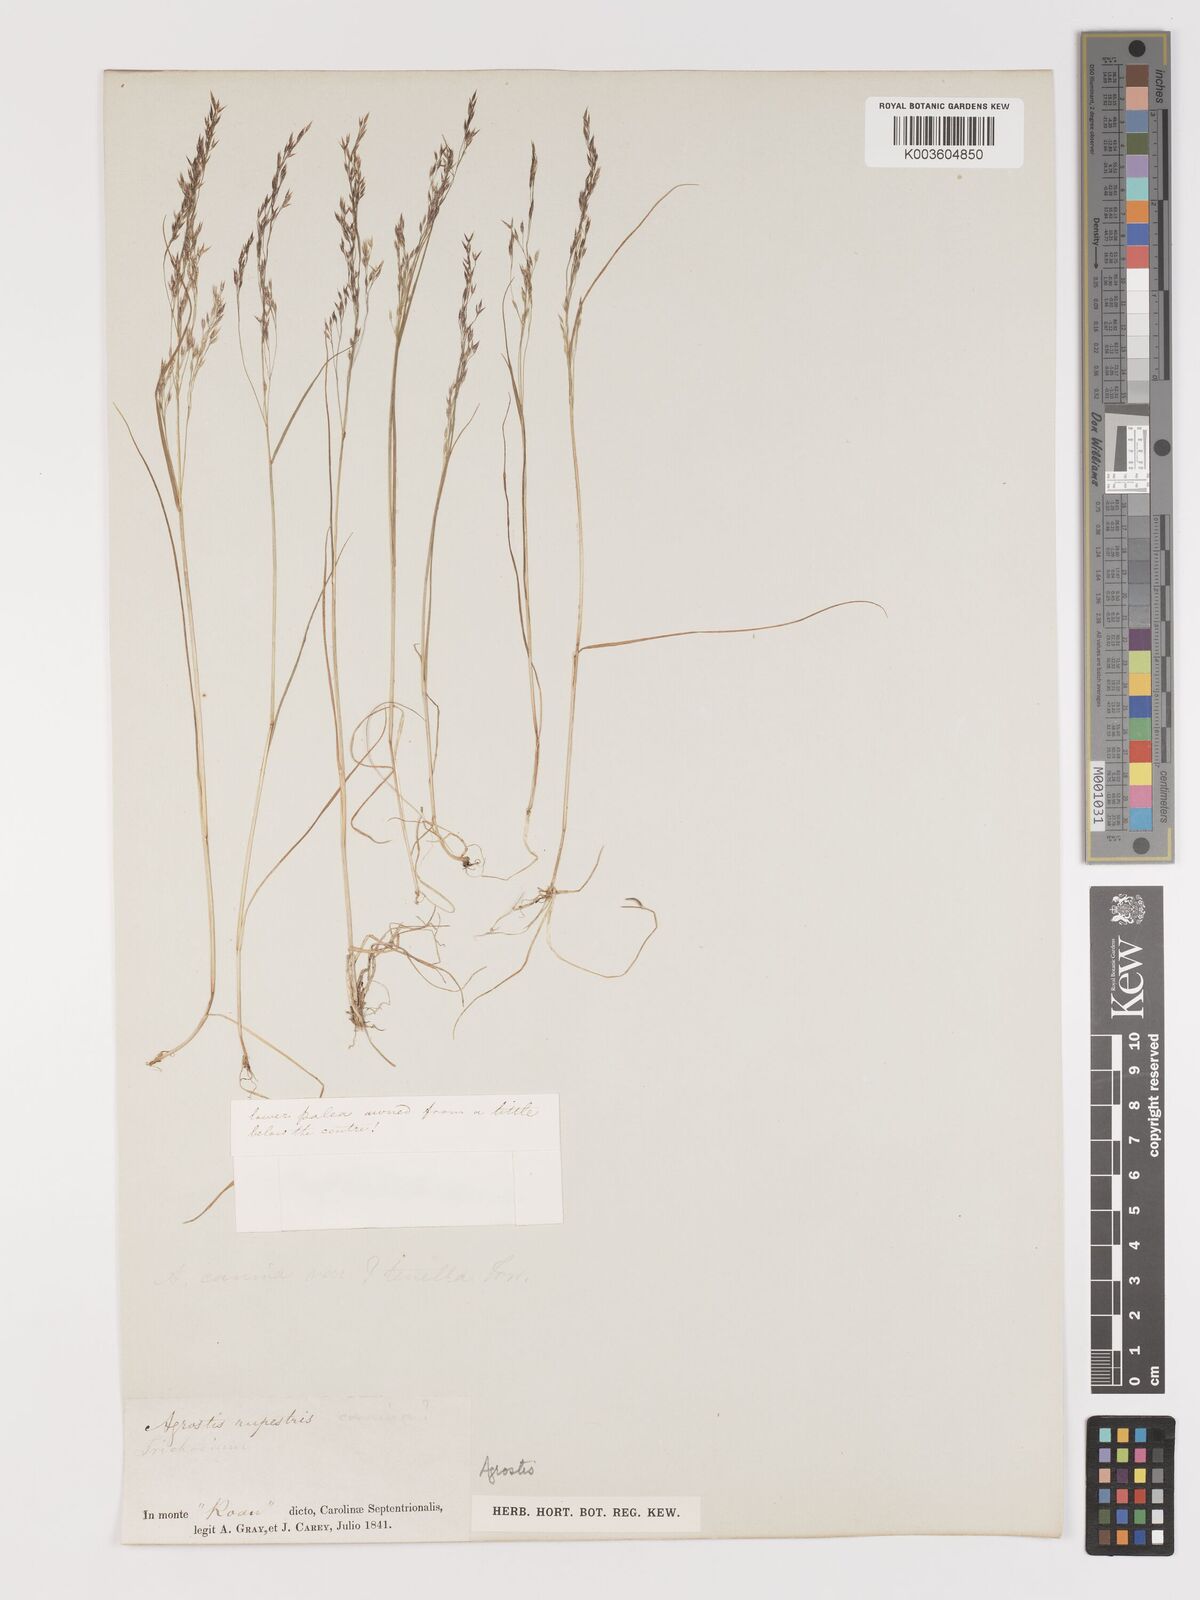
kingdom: Plantae
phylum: Tracheophyta
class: Liliopsida
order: Poales
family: Poaceae
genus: Agrostis
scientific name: Agrostis
